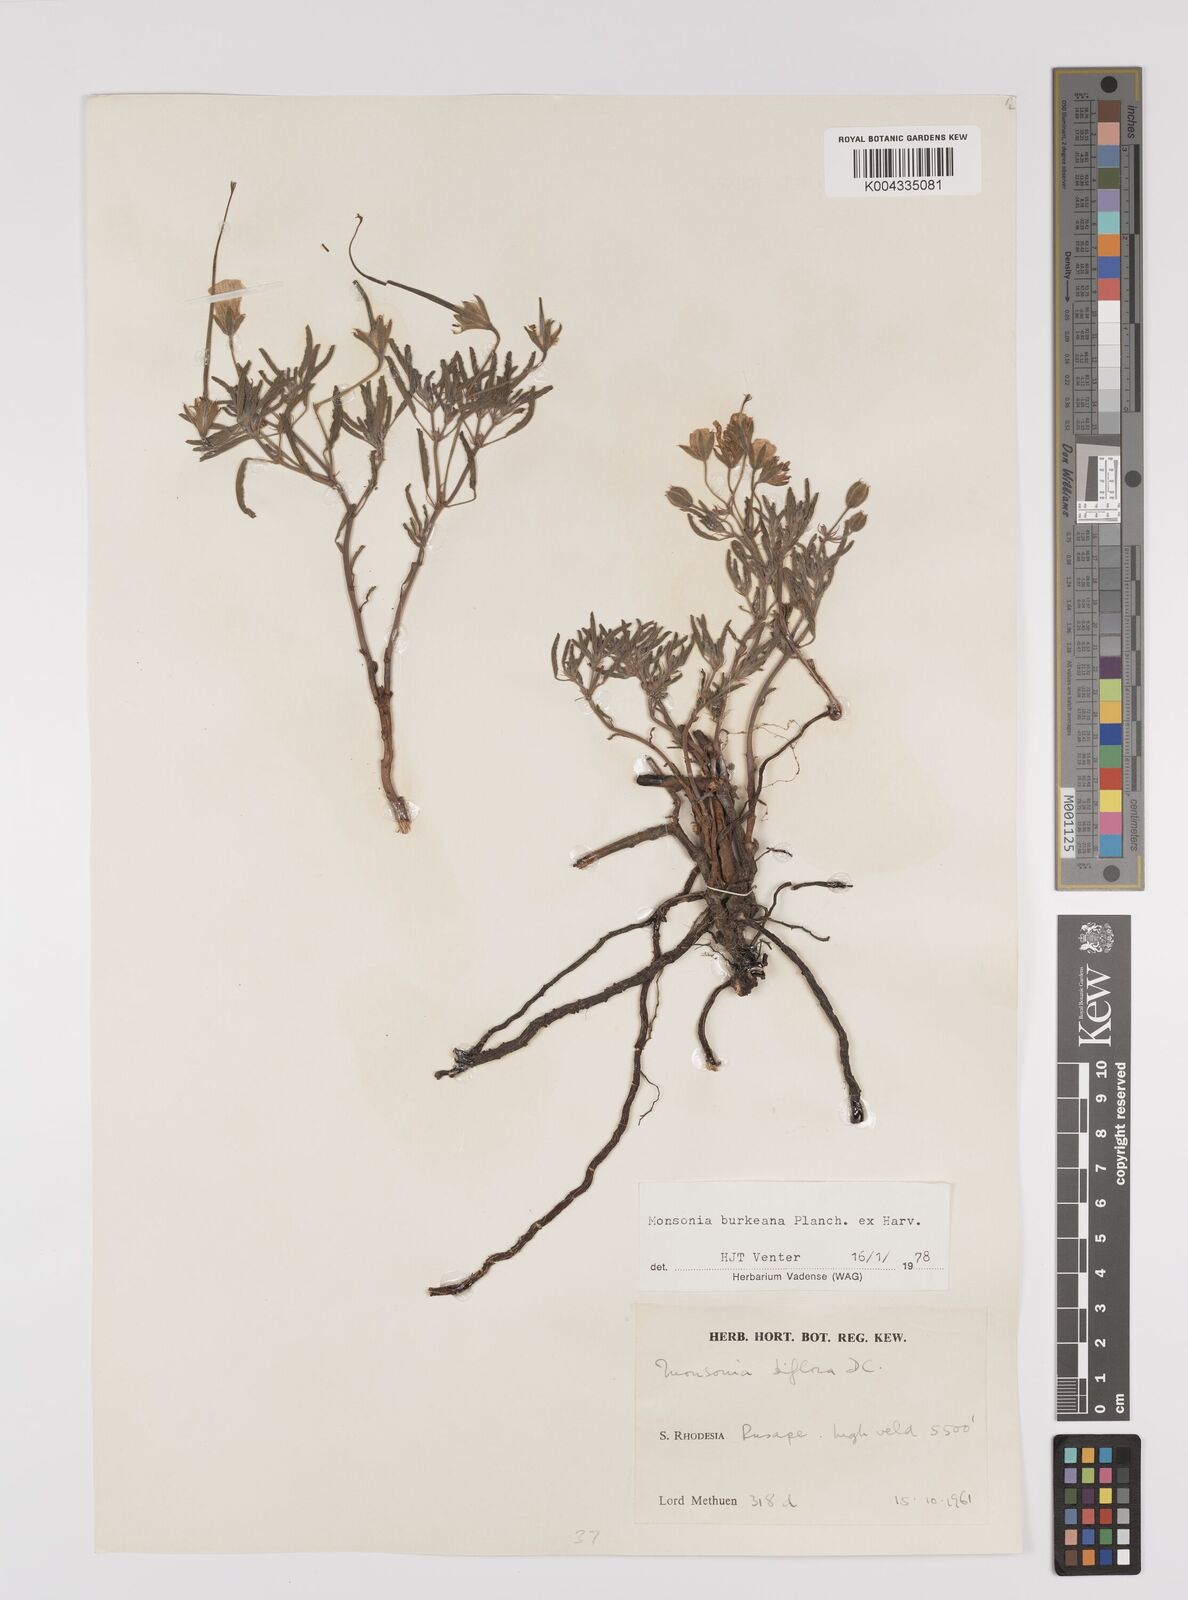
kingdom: Plantae
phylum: Tracheophyta
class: Magnoliopsida
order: Geraniales
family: Geraniaceae
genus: Monsonia
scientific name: Monsonia biflora
